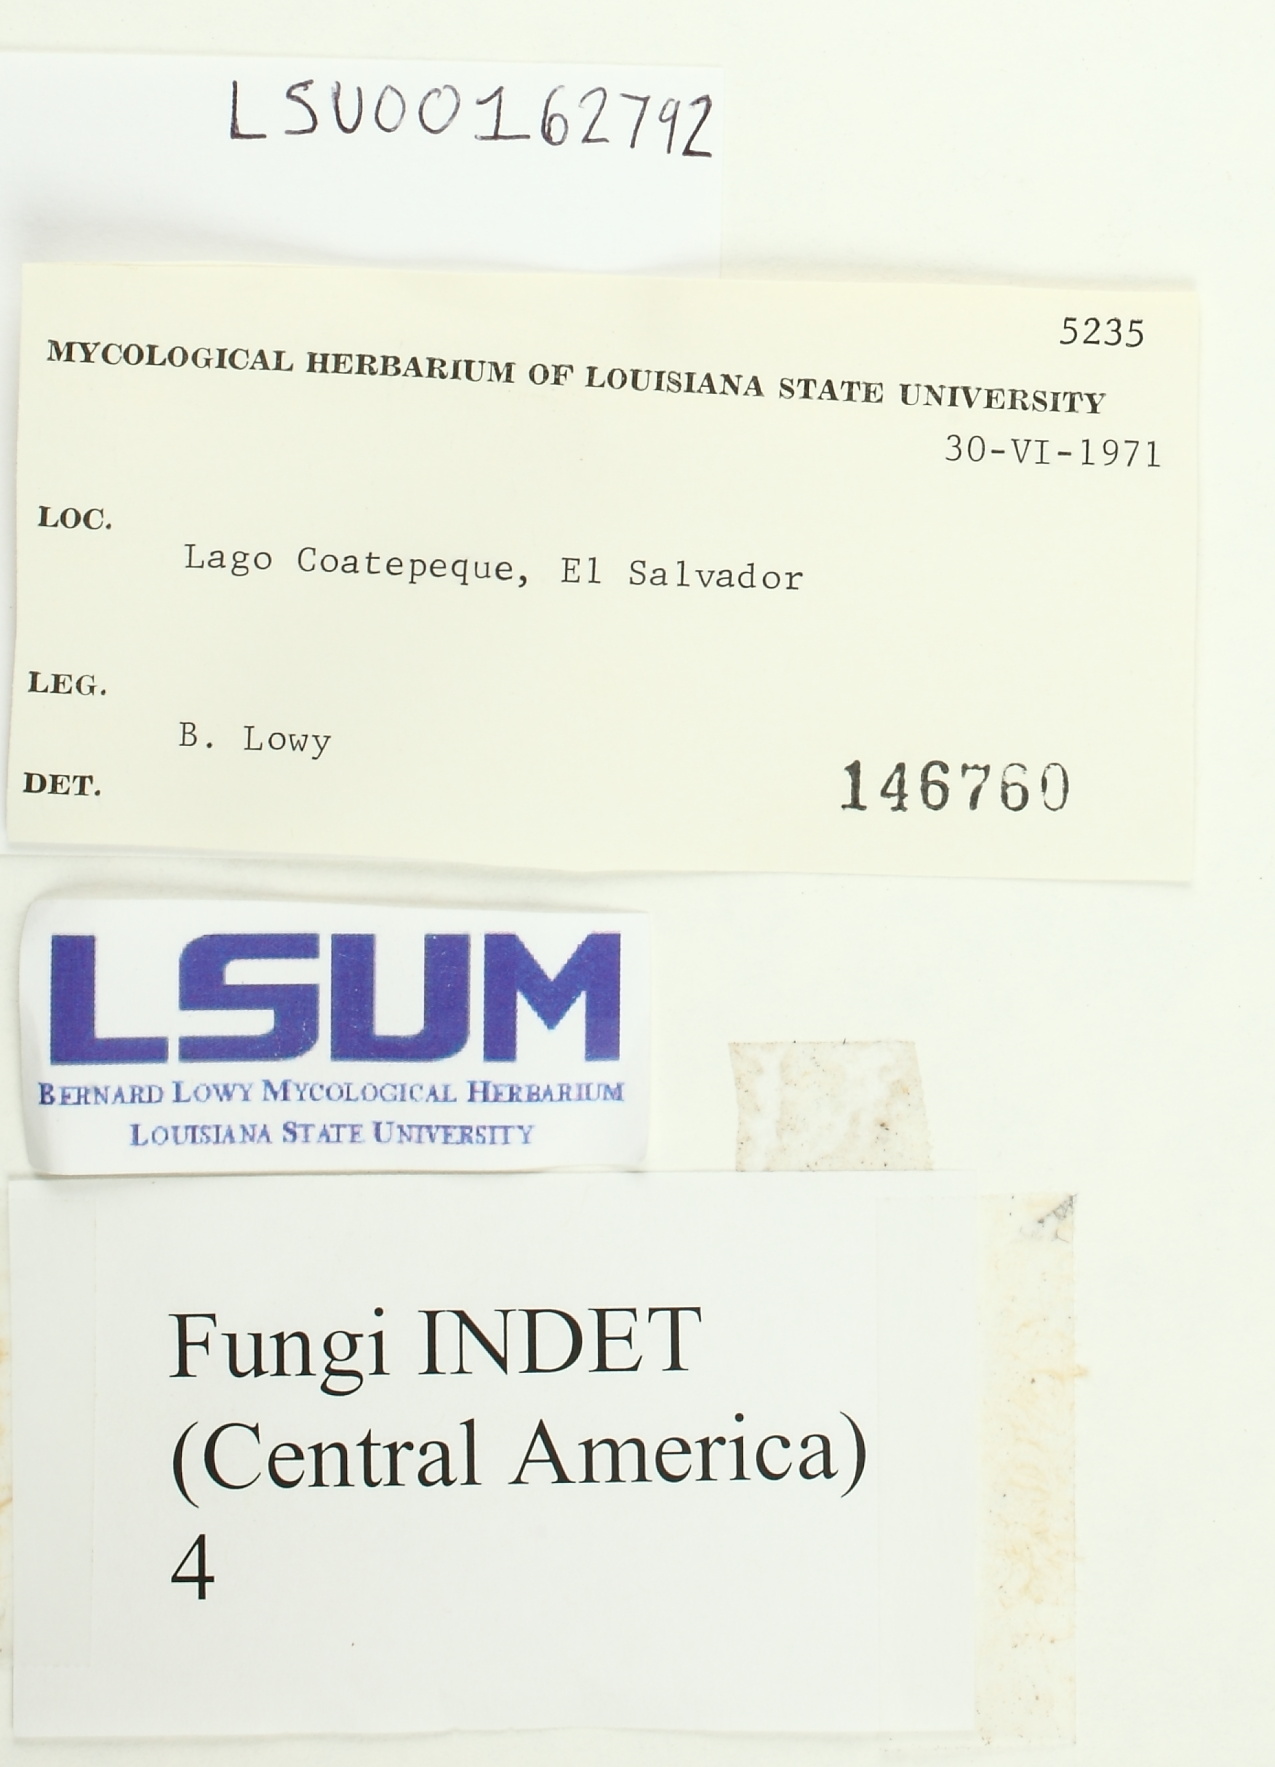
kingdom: Fungi
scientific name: Fungi
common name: Fungi
